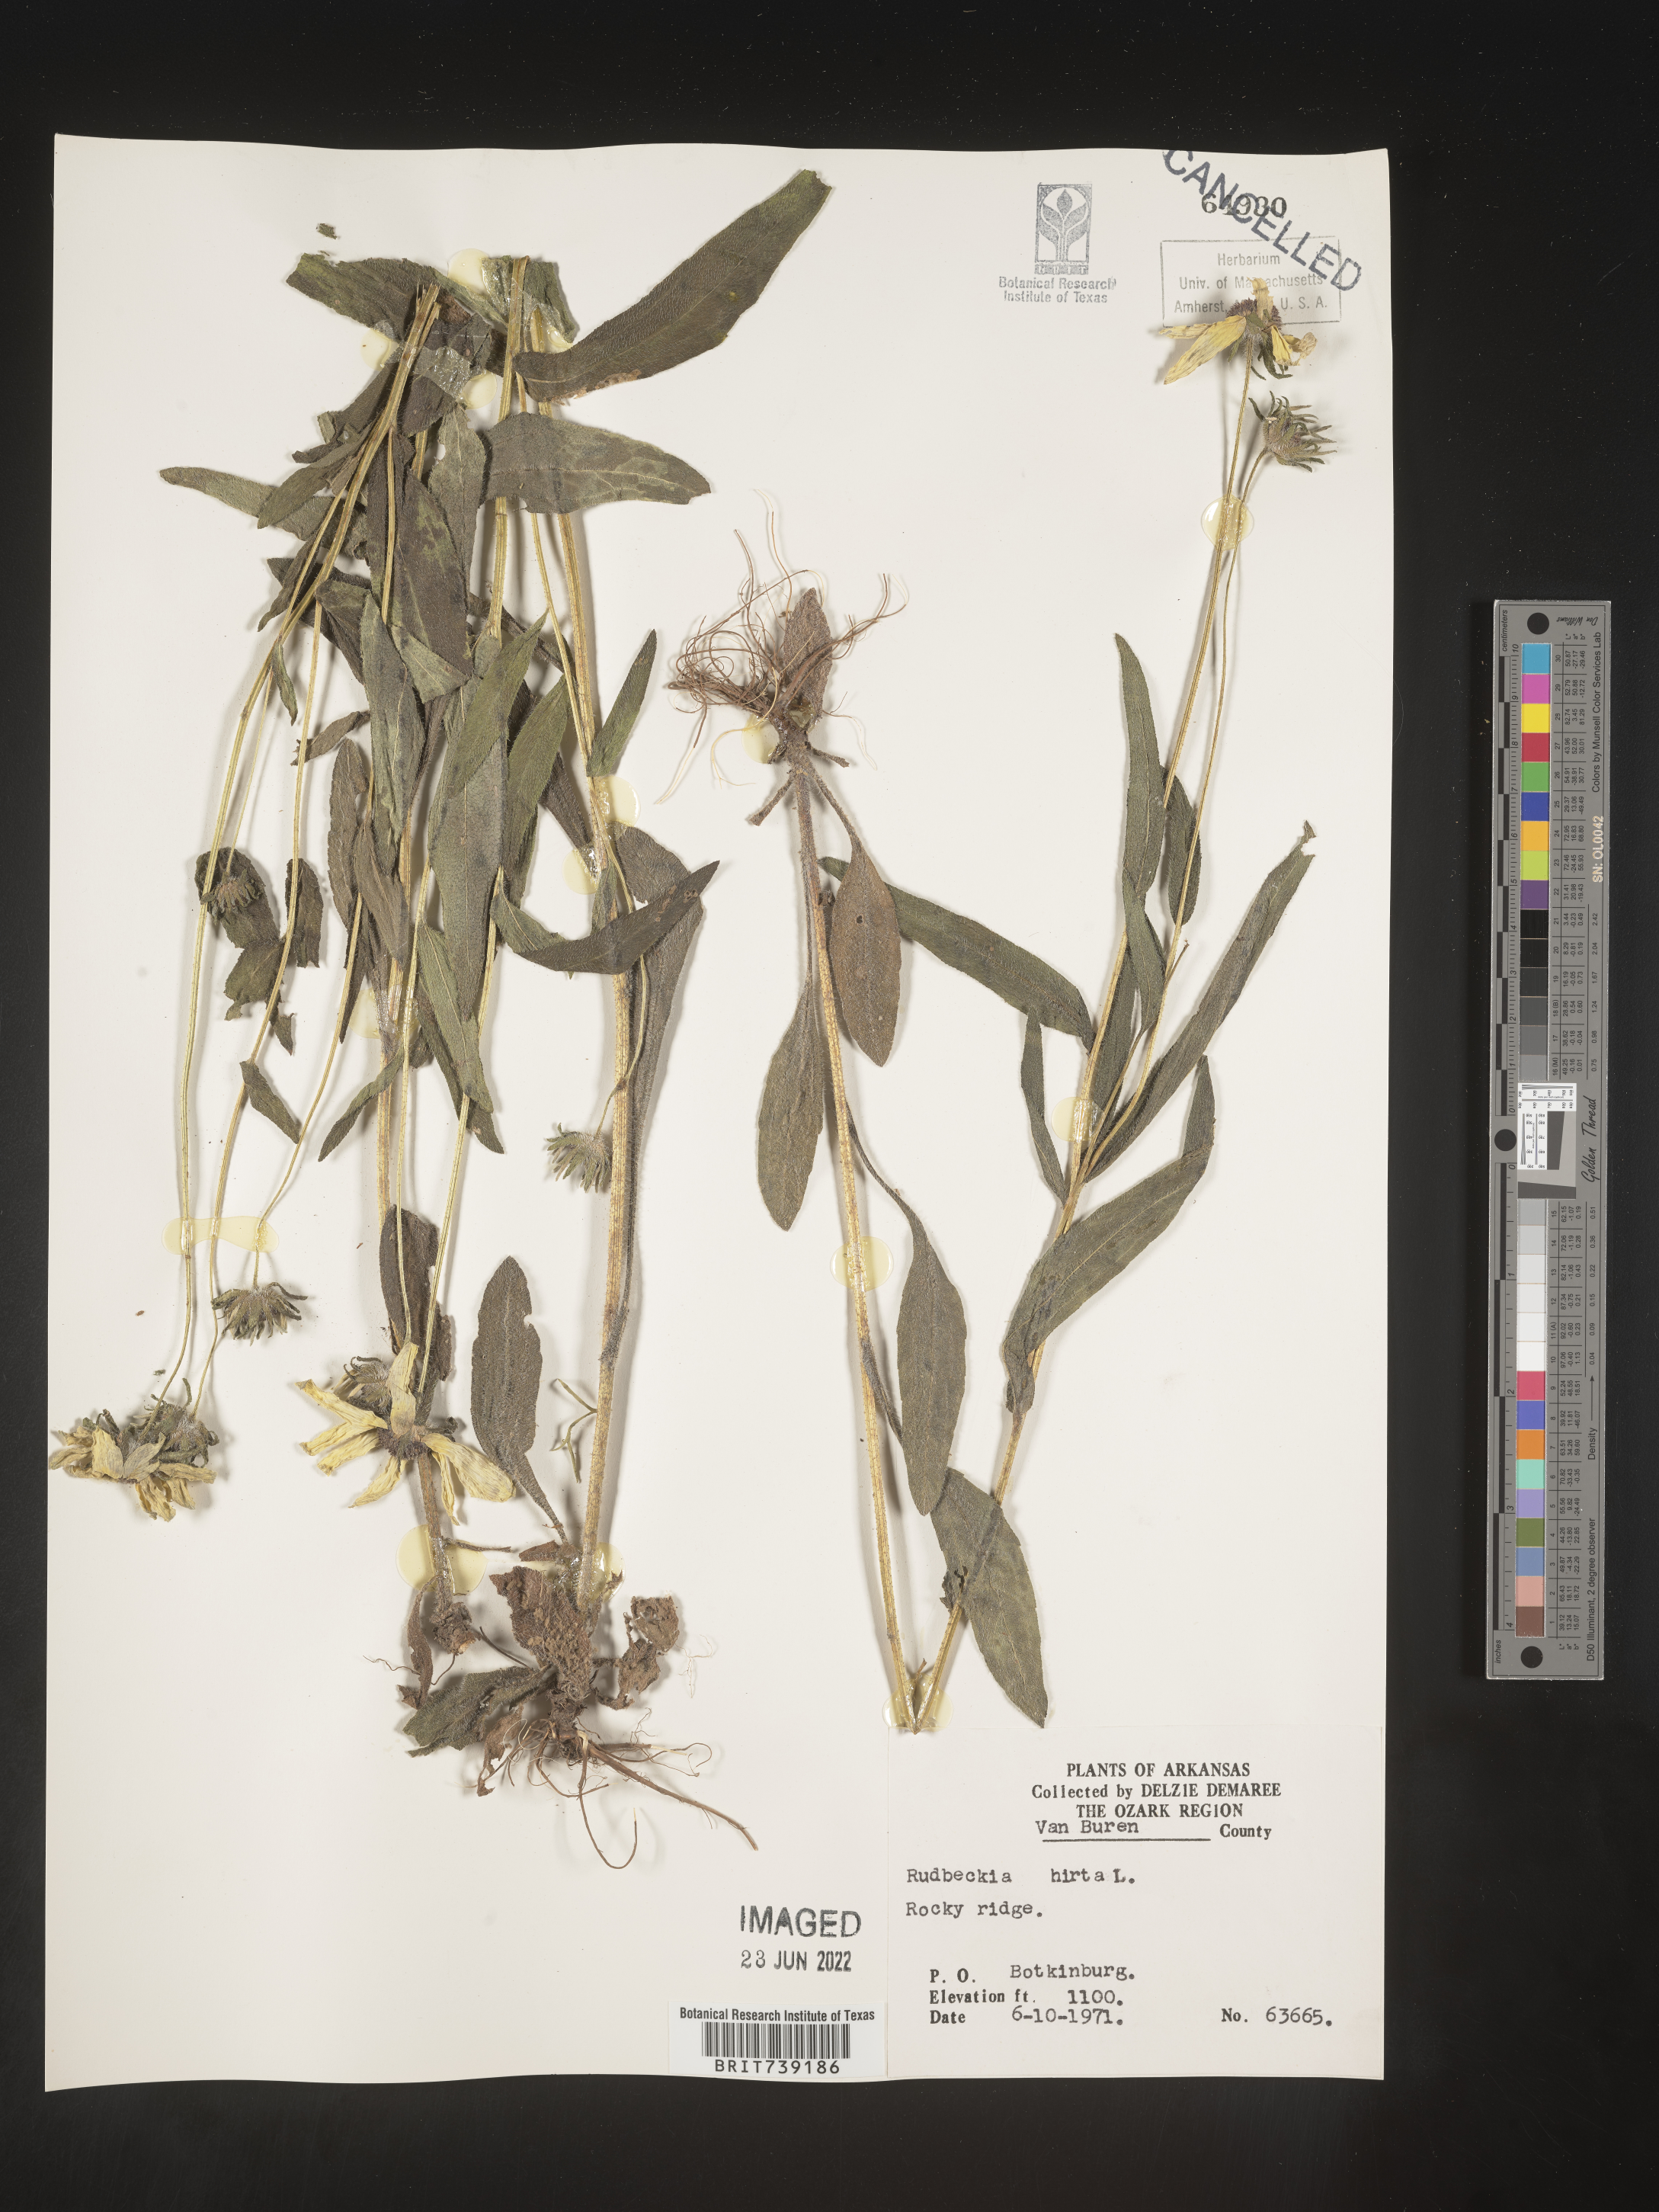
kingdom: Plantae
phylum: Tracheophyta
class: Magnoliopsida
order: Asterales
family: Asteraceae
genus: Rudbeckia
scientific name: Rudbeckia hirta
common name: Black-eyed-susan
